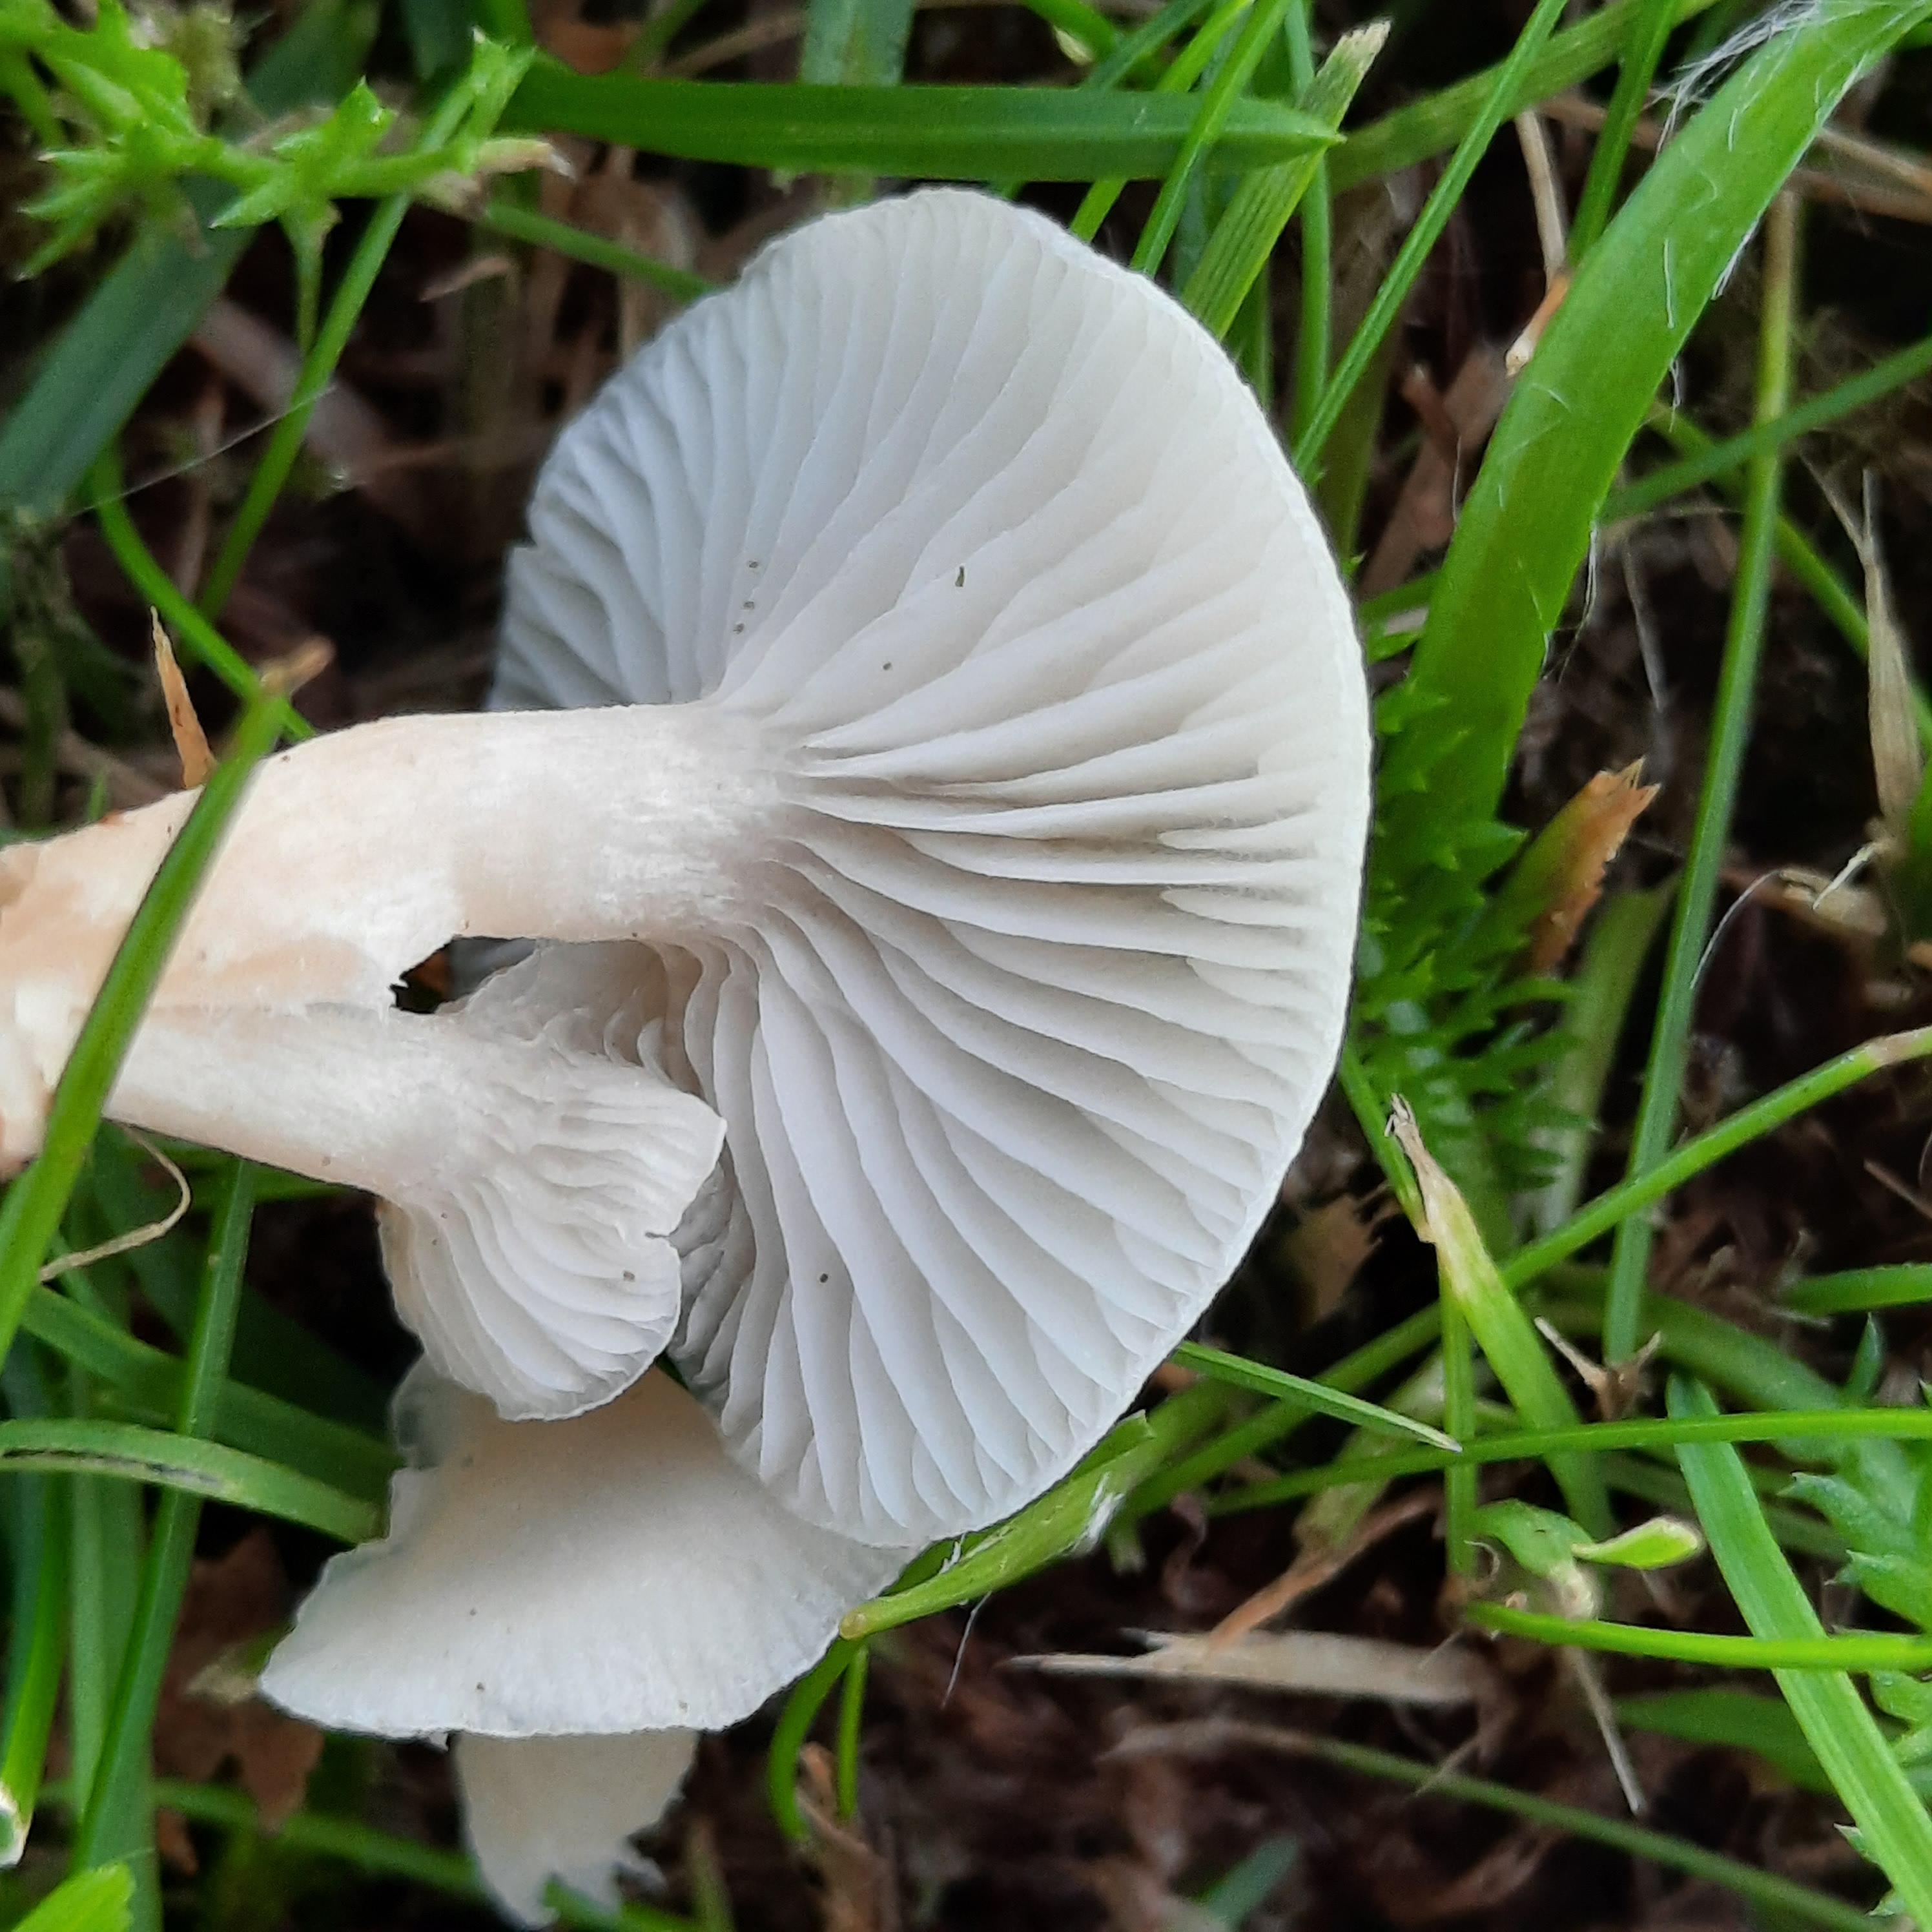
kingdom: Fungi
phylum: Basidiomycota
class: Agaricomycetes
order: Agaricales
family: Hygrophoraceae
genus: Cuphophyllus
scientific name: Cuphophyllus virgineus
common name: snehvid vokshat
